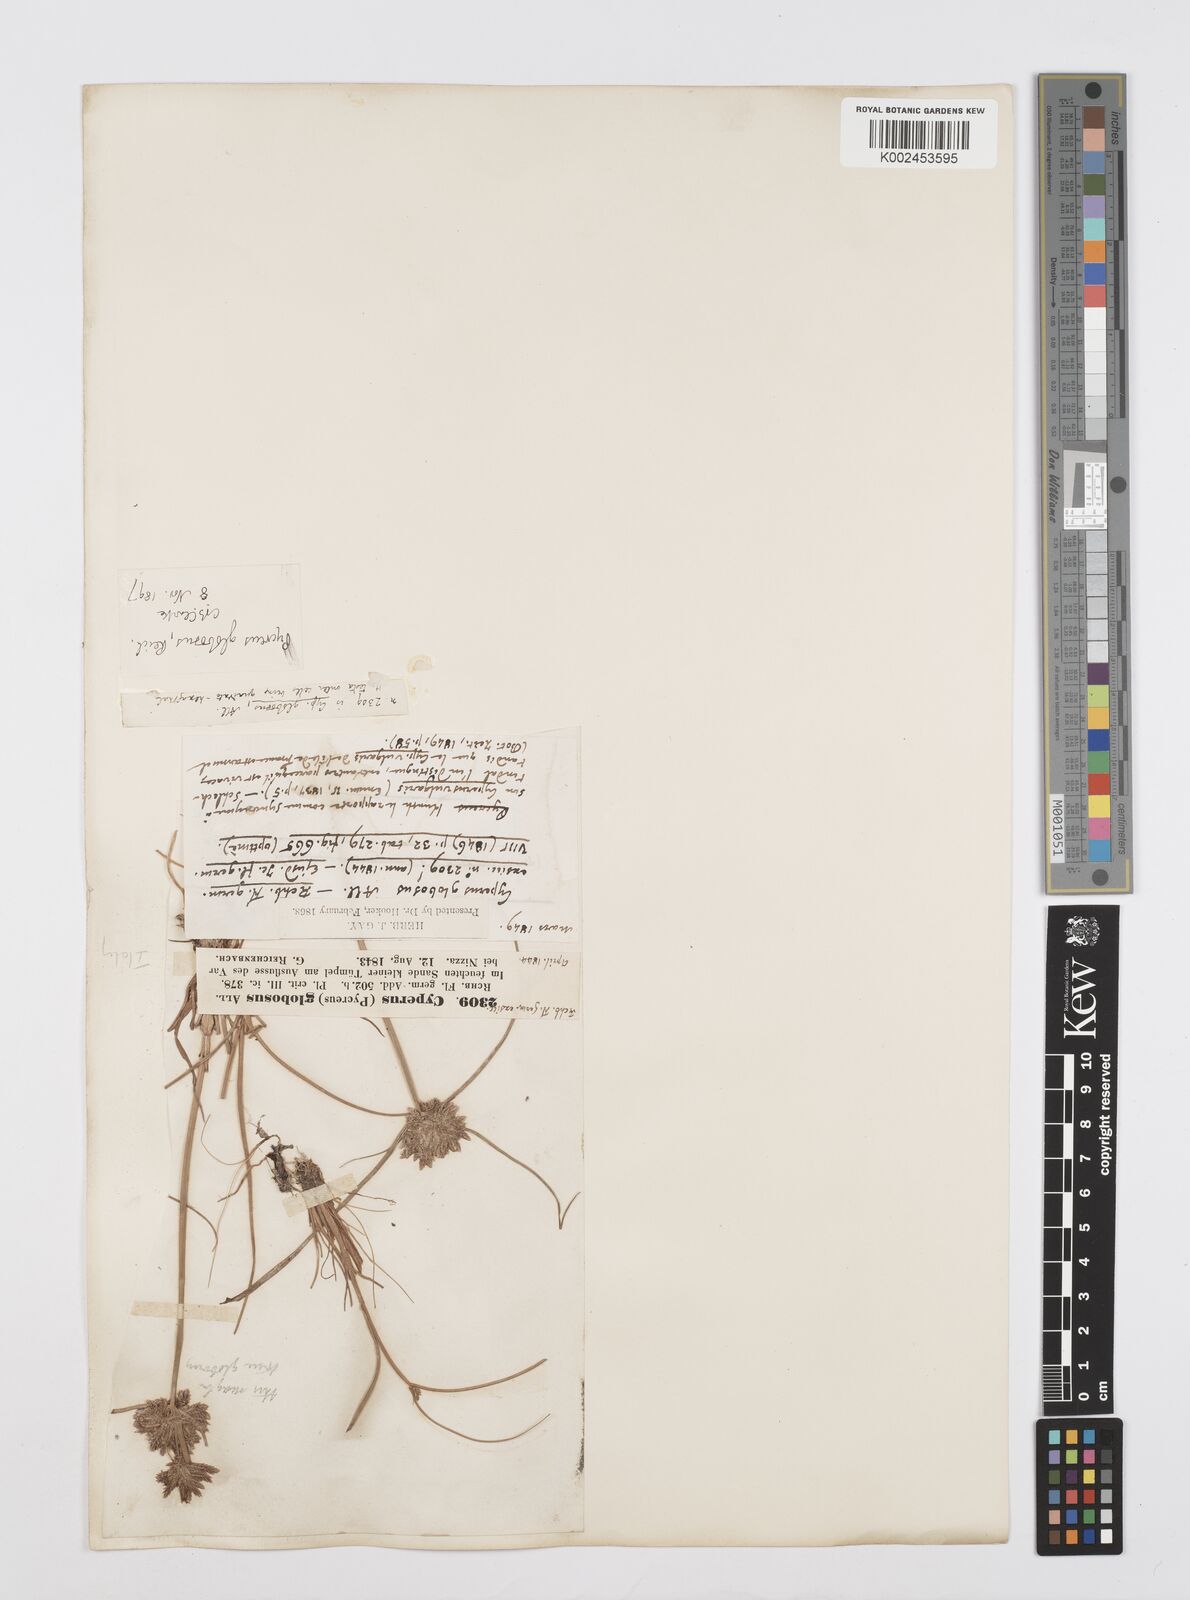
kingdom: Plantae
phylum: Tracheophyta
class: Liliopsida
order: Poales
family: Cyperaceae
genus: Cyperus
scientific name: Cyperus flavidus
